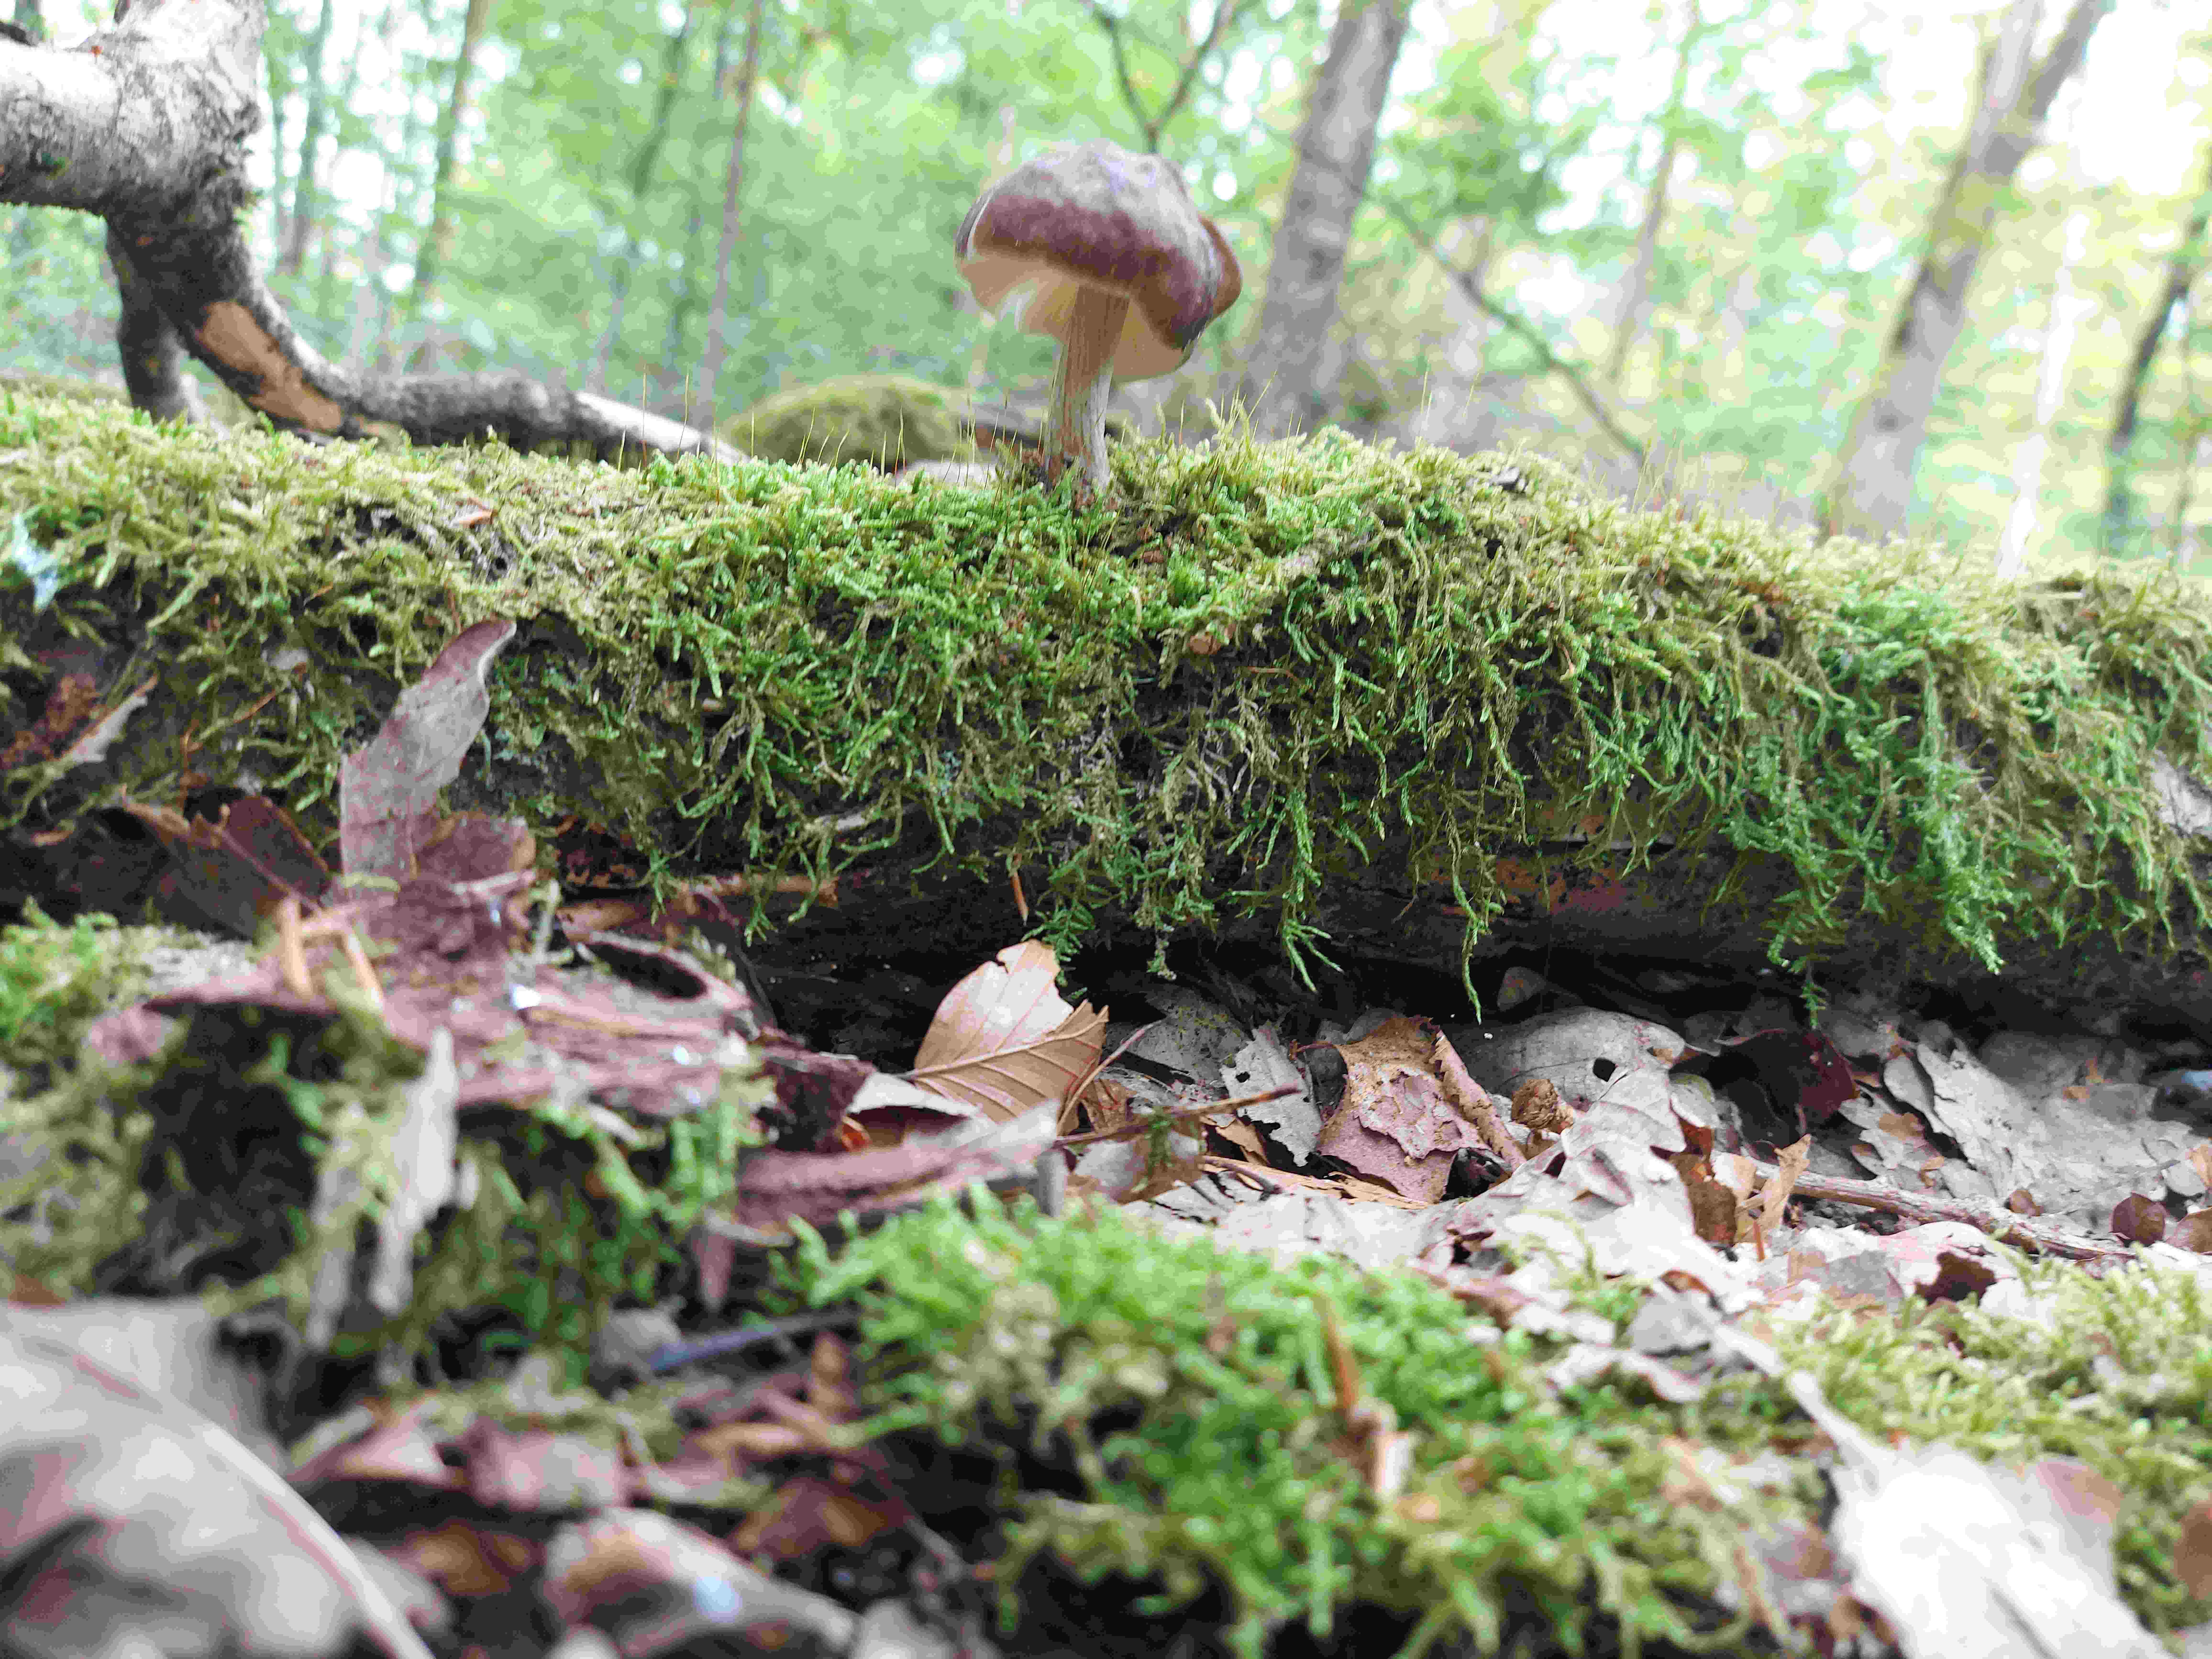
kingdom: Fungi
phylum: Basidiomycota
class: Agaricomycetes
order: Agaricales
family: Pluteaceae
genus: Pluteus
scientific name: Pluteus cervinus
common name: sodfarvet skærmhat
